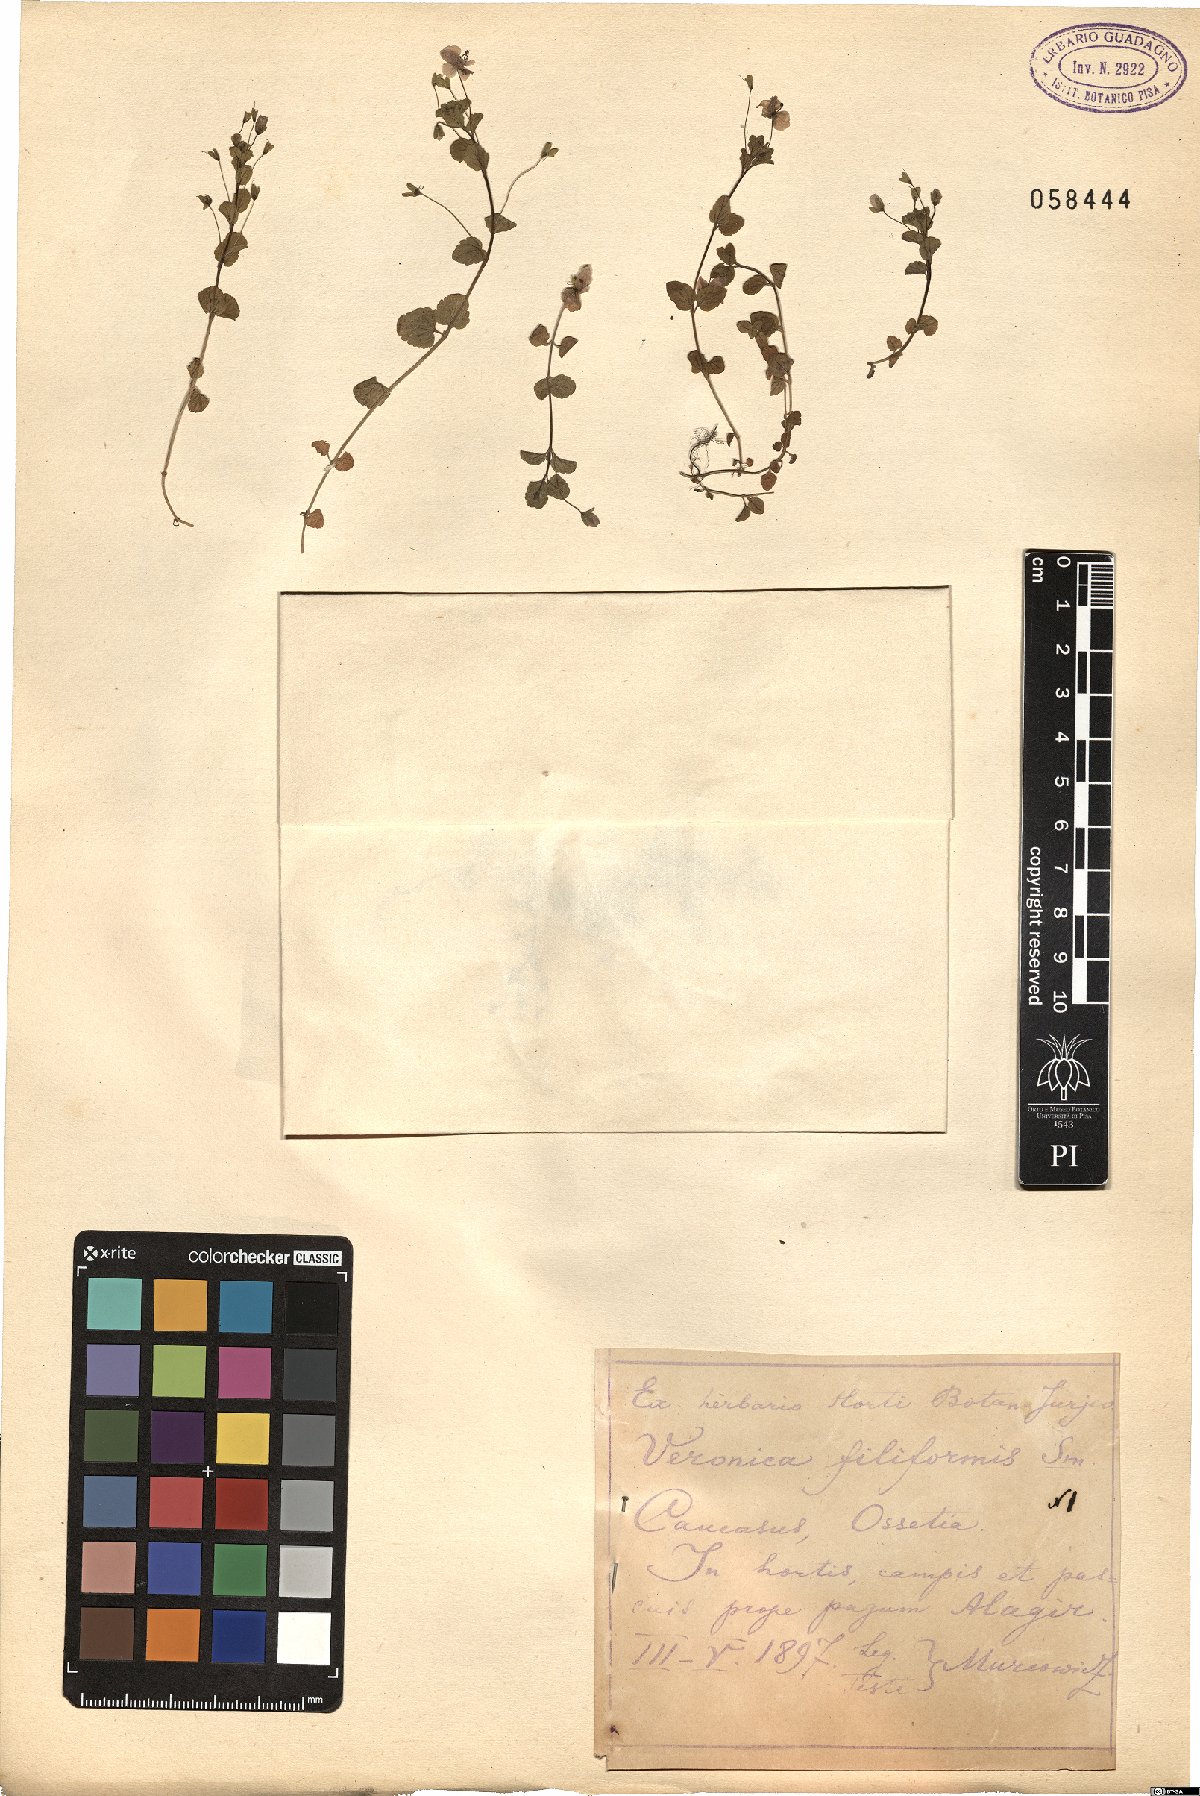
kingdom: Plantae
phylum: Tracheophyta
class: Magnoliopsida
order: Lamiales
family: Plantaginaceae
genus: Veronica
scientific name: Veronica filiformis
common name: Slender speedwell
